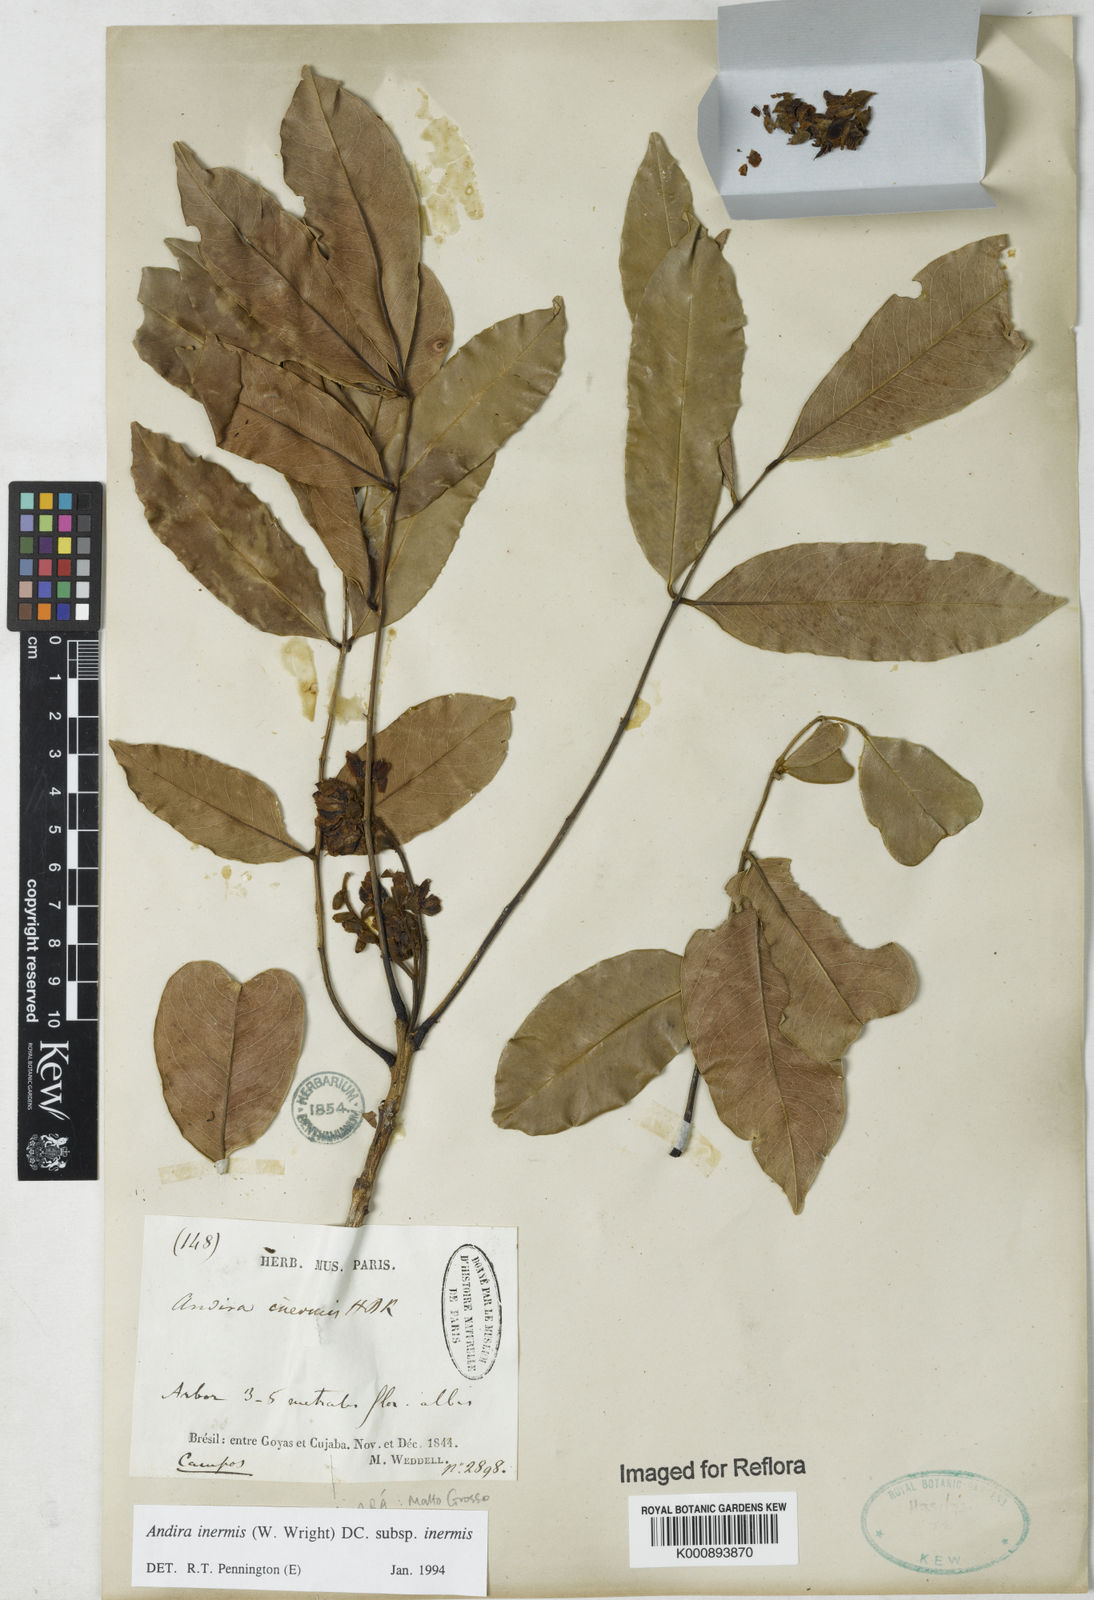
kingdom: Plantae
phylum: Tracheophyta
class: Magnoliopsida
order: Fabales
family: Fabaceae
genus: Andira
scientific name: Andira inermis
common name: Angelin
